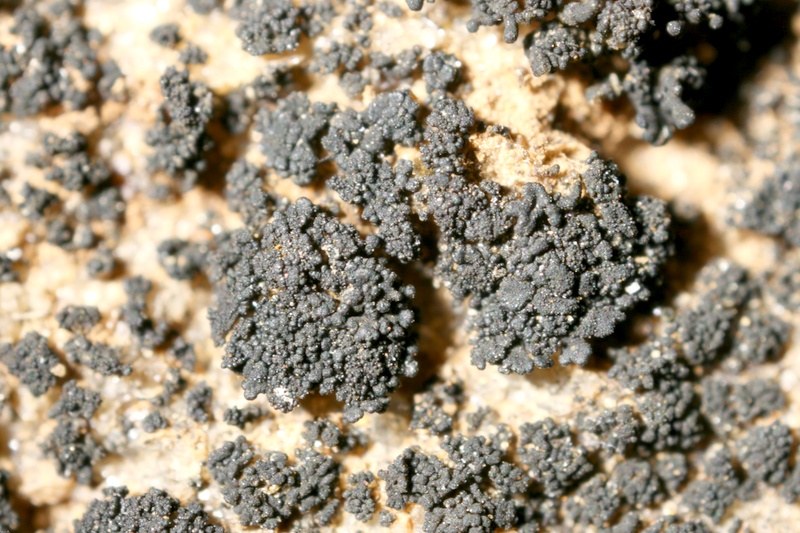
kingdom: Fungi
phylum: Ascomycota
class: Lichinomycetes
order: Lichinales
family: Lichinaceae
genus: Lichinella
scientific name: Lichinella granulosa
